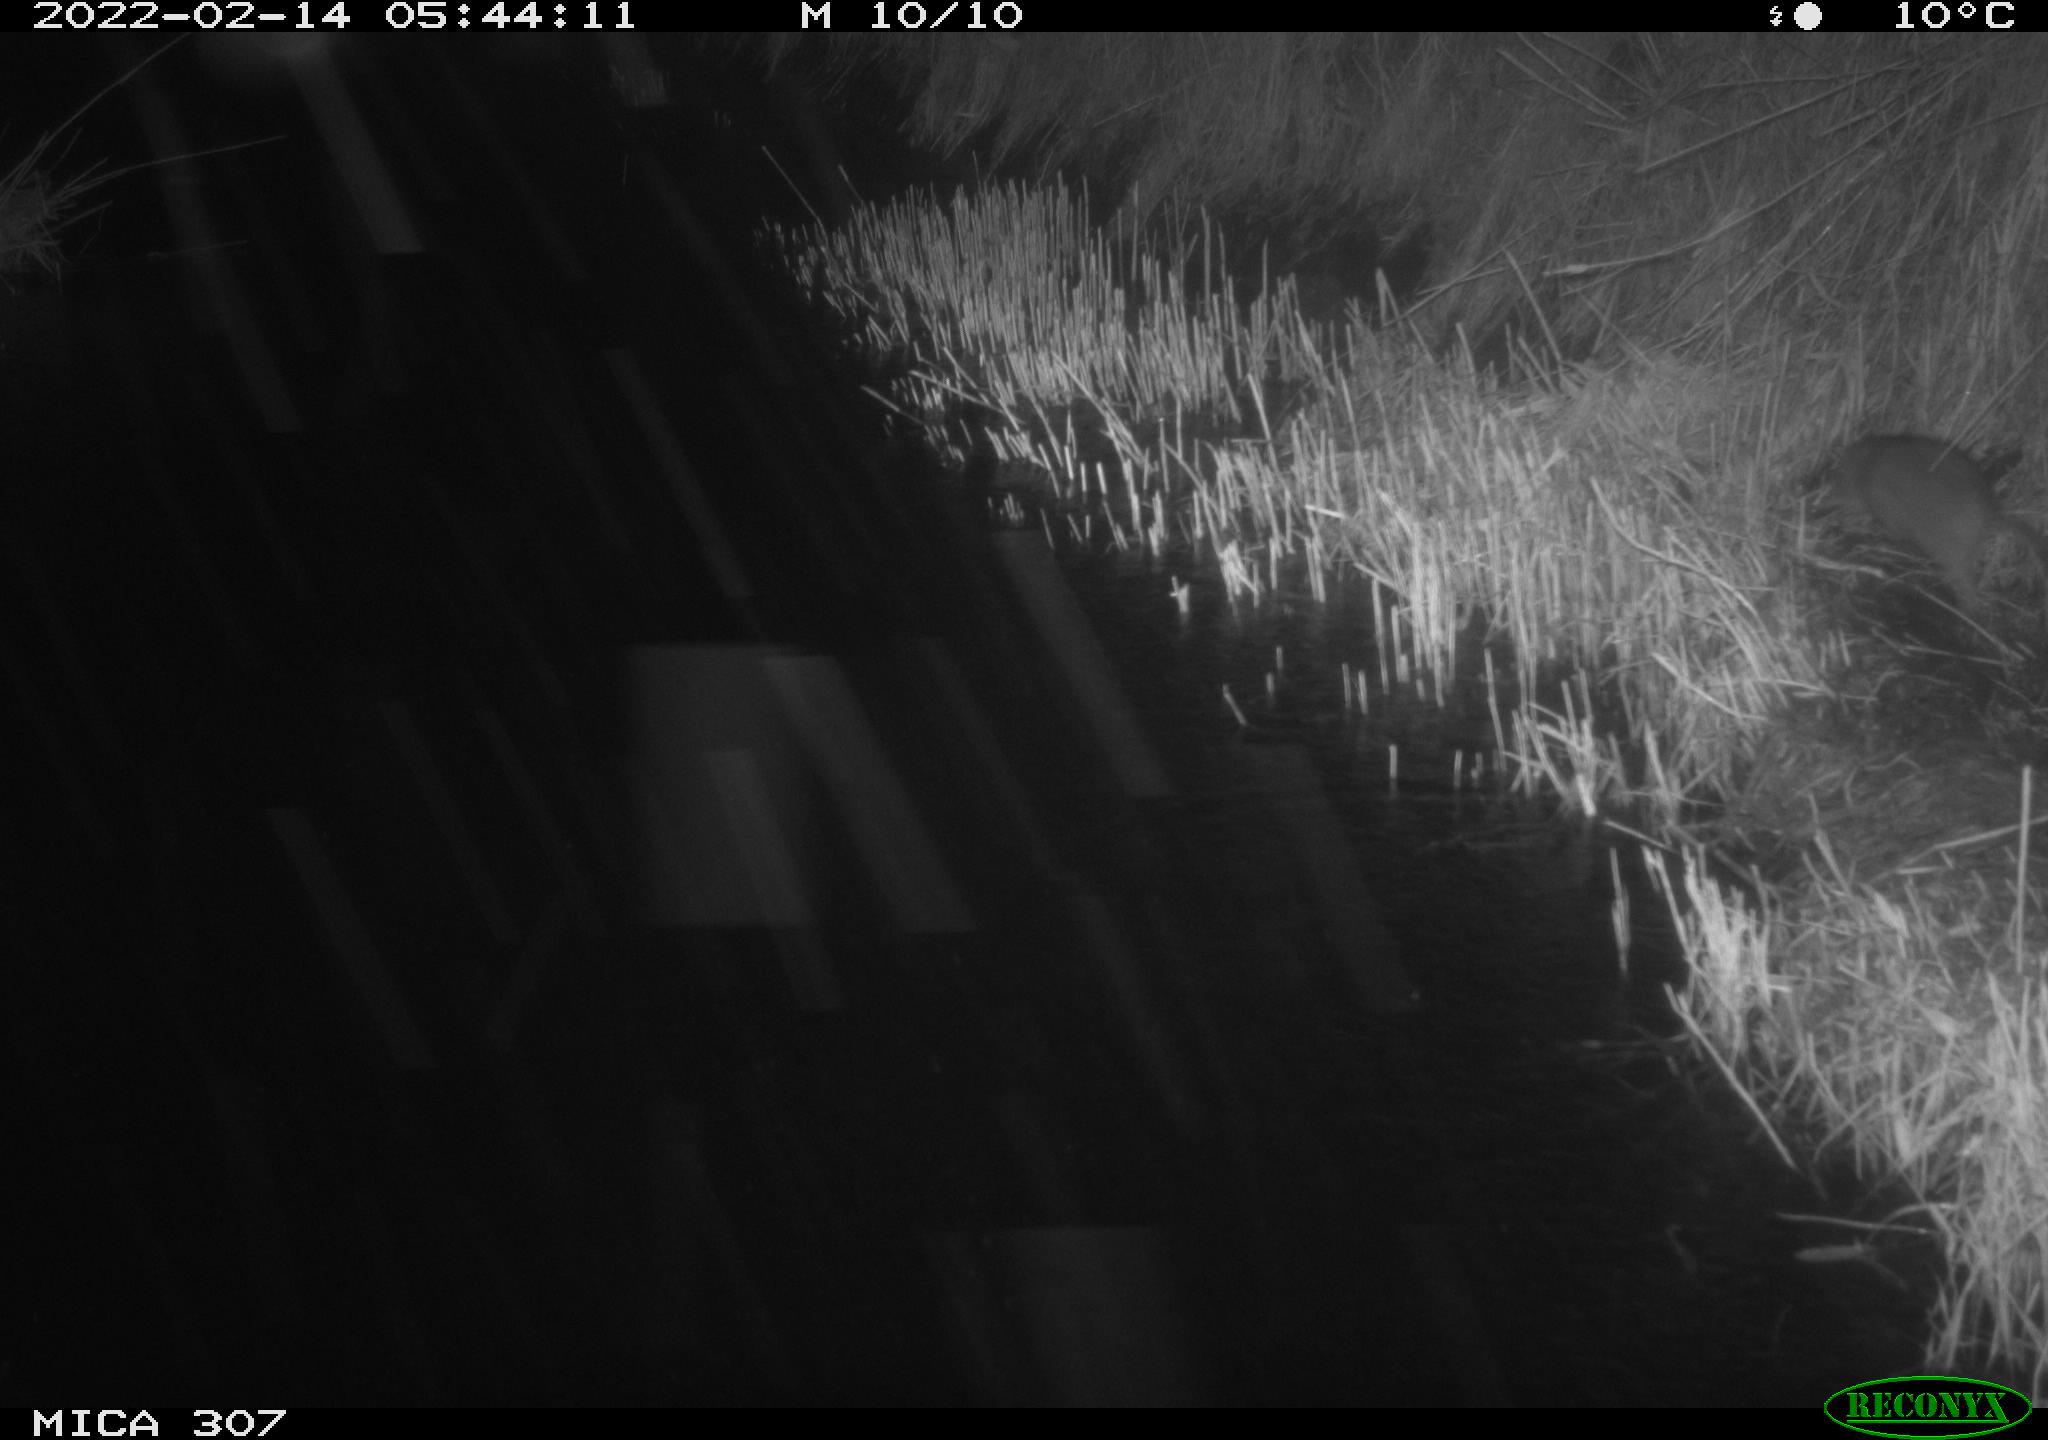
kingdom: Animalia
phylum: Chordata
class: Mammalia
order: Rodentia
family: Muridae
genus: Rattus
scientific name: Rattus norvegicus
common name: Brown rat
